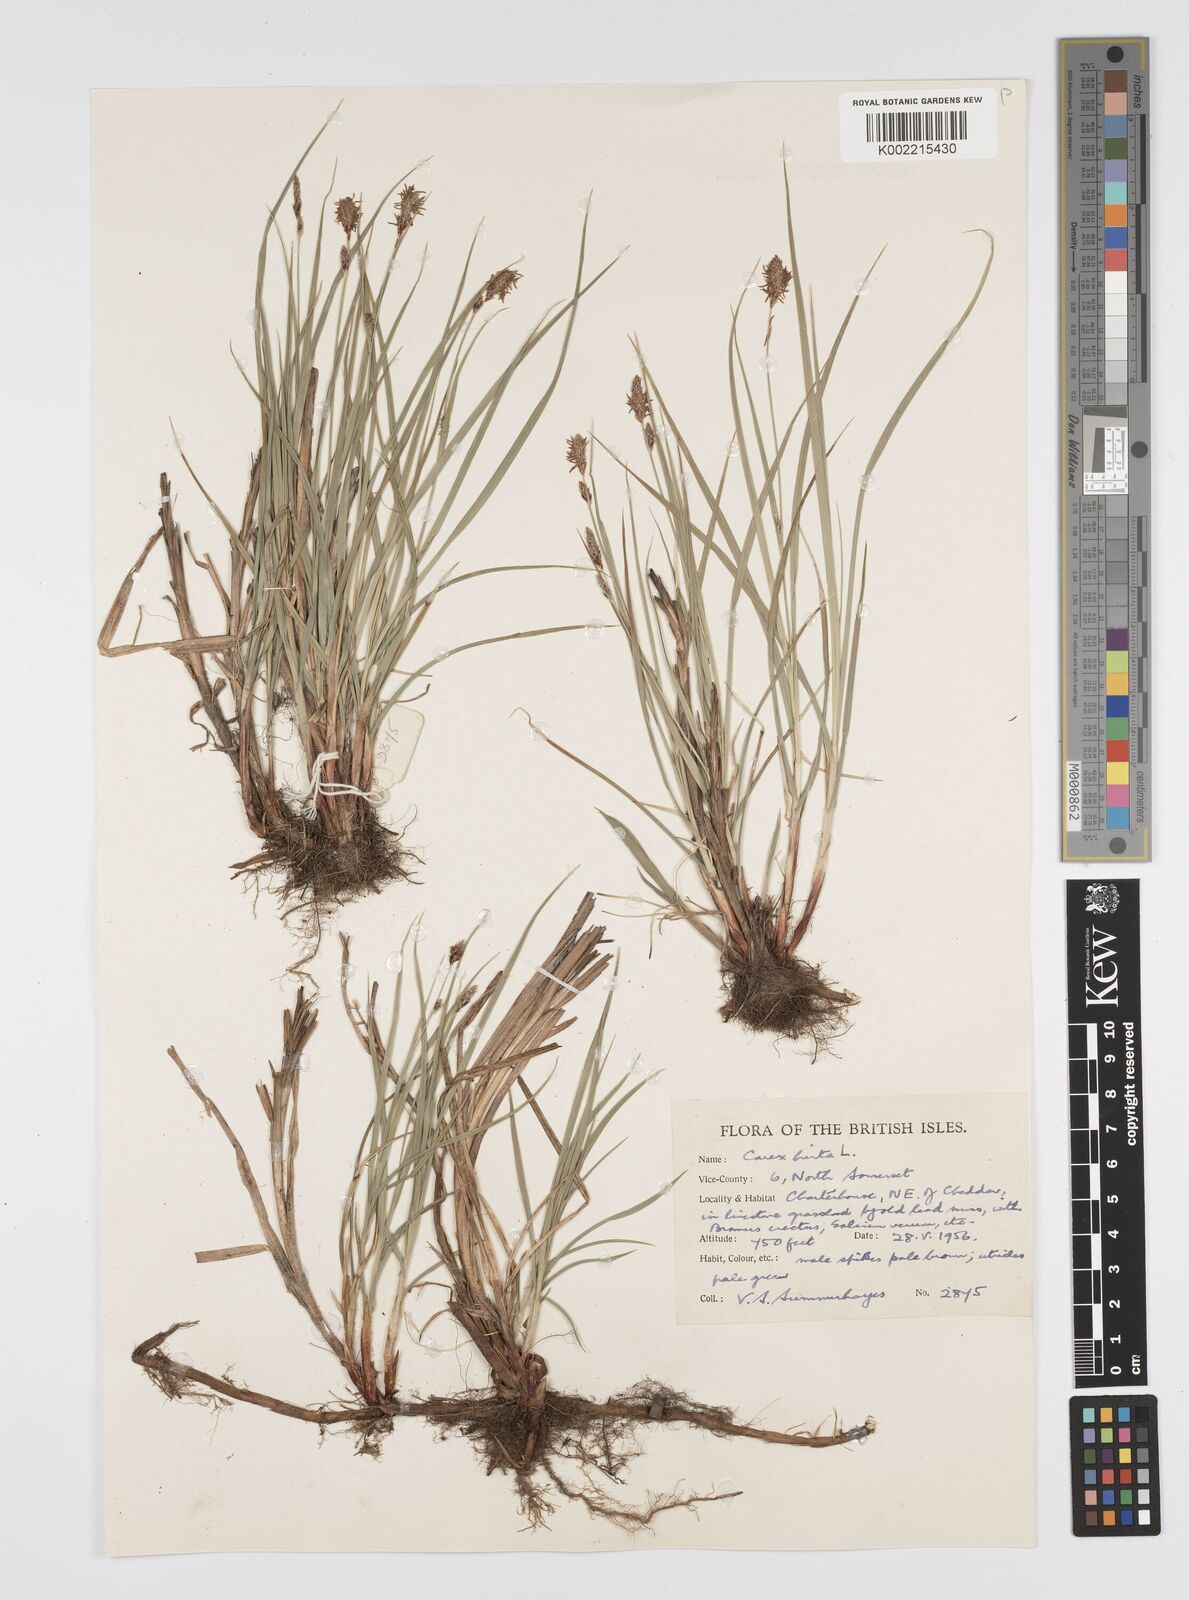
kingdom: Plantae
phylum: Tracheophyta
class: Liliopsida
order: Poales
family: Cyperaceae
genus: Carex
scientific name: Carex hirta
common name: Hairy sedge
